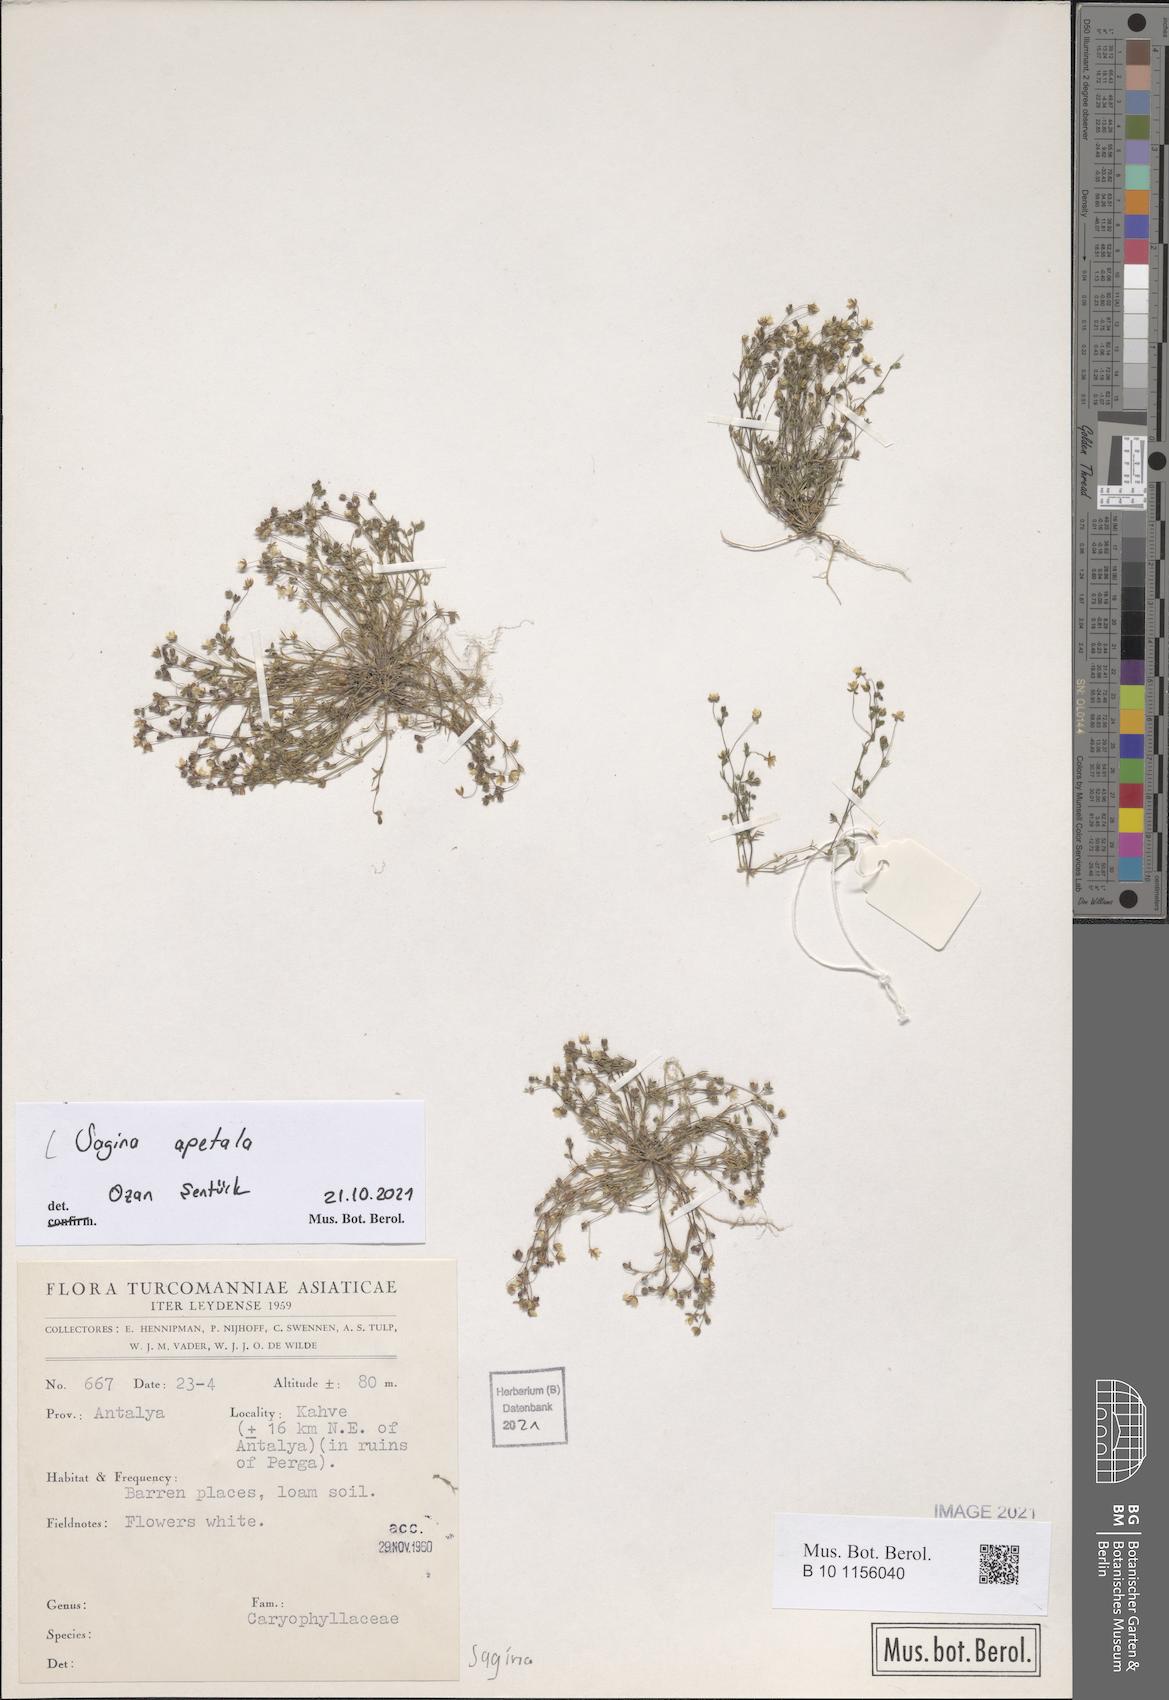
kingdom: Plantae
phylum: Tracheophyta
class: Magnoliopsida
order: Caryophyllales
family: Caryophyllaceae
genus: Sagina
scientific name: Sagina apetala
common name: Annual pearlwort
